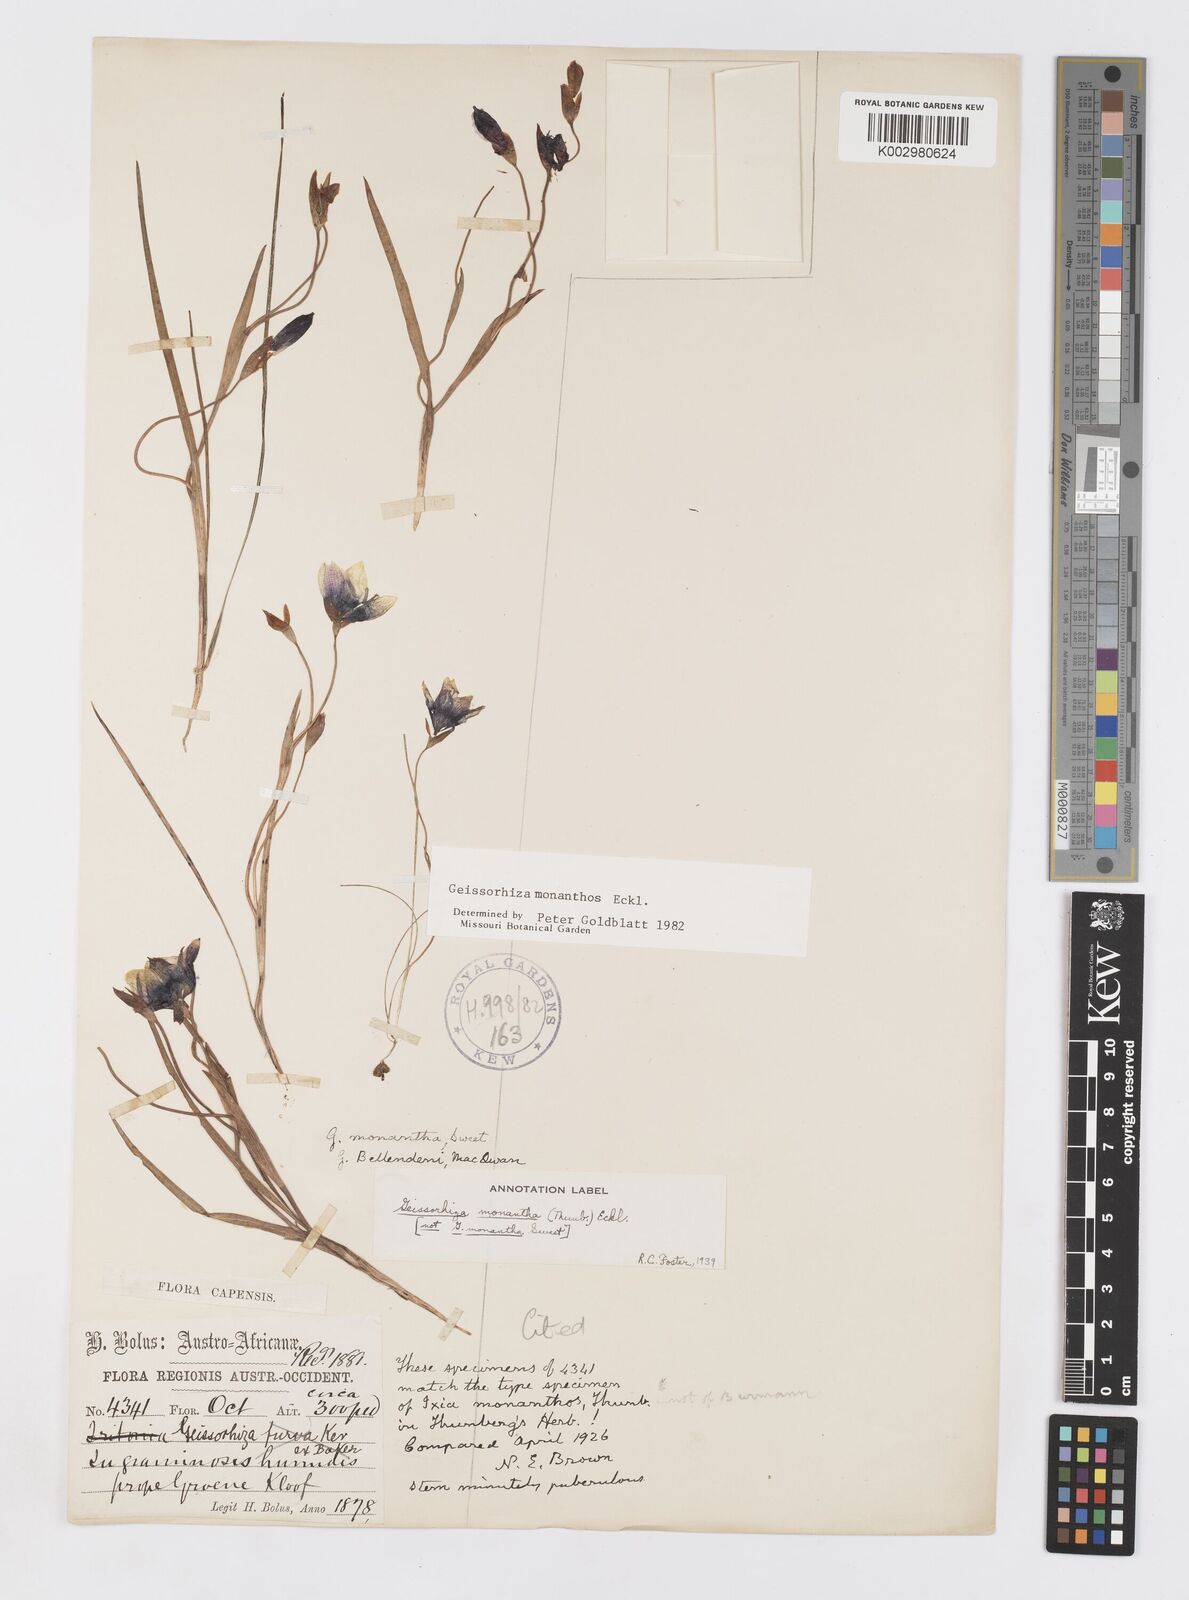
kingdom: Plantae
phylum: Tracheophyta
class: Liliopsida
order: Asparagales
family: Iridaceae
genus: Geissorhiza
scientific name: Geissorhiza monanthos
